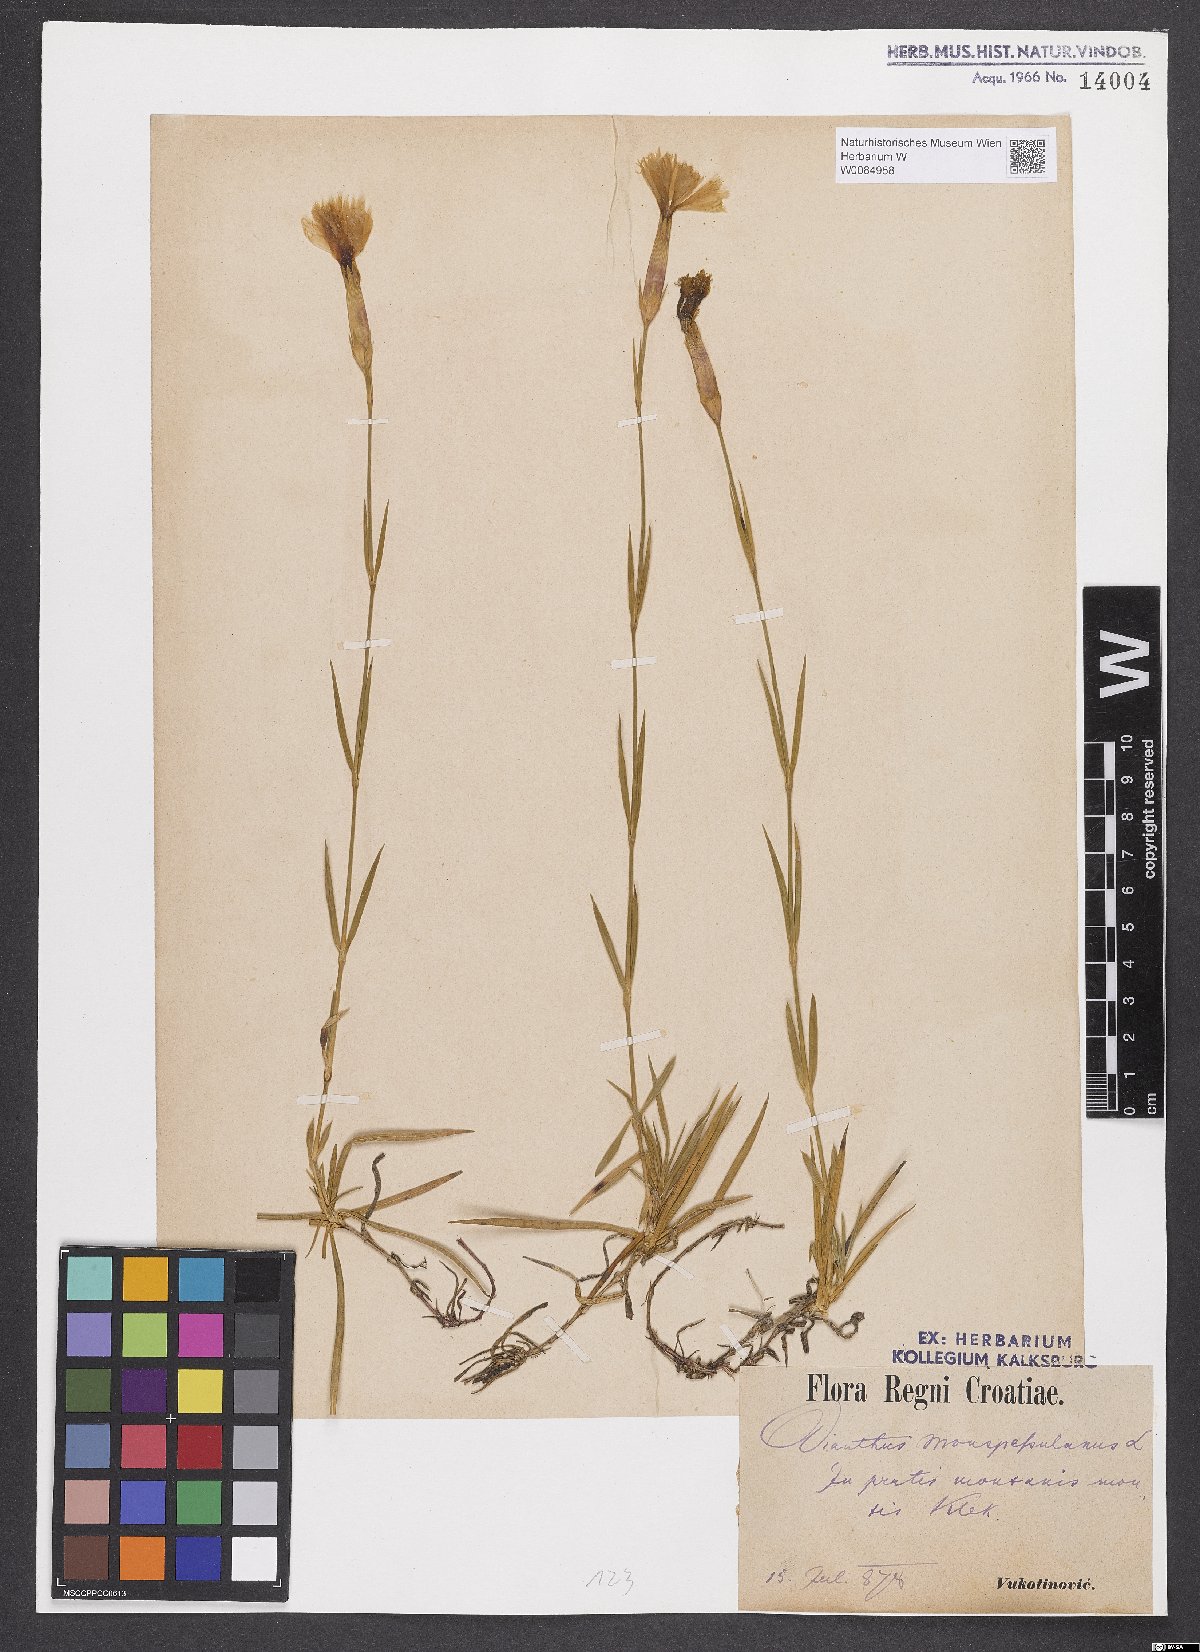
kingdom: Plantae
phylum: Tracheophyta
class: Magnoliopsida
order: Caryophyllales
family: Caryophyllaceae
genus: Dianthus
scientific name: Dianthus hyssopifolius
